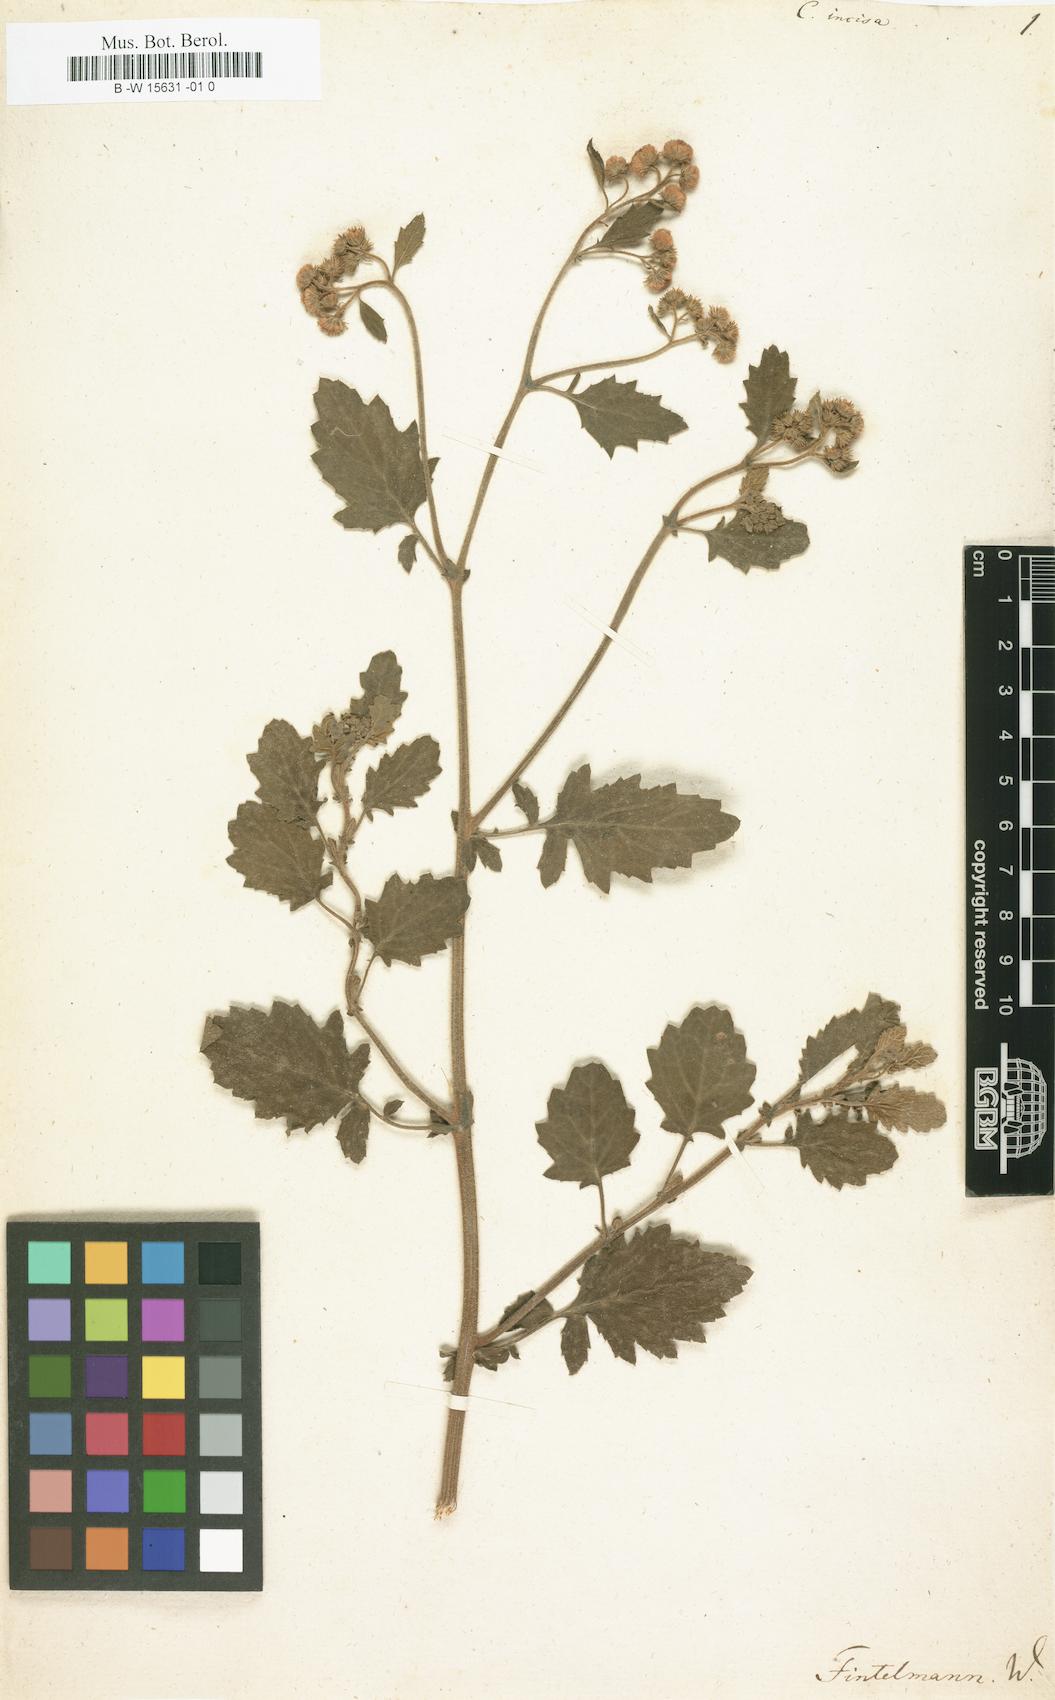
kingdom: Plantae
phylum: Tracheophyta
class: Magnoliopsida
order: Asterales
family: Asteraceae
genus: Eschenbachia
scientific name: Eschenbachia ulmifolia
